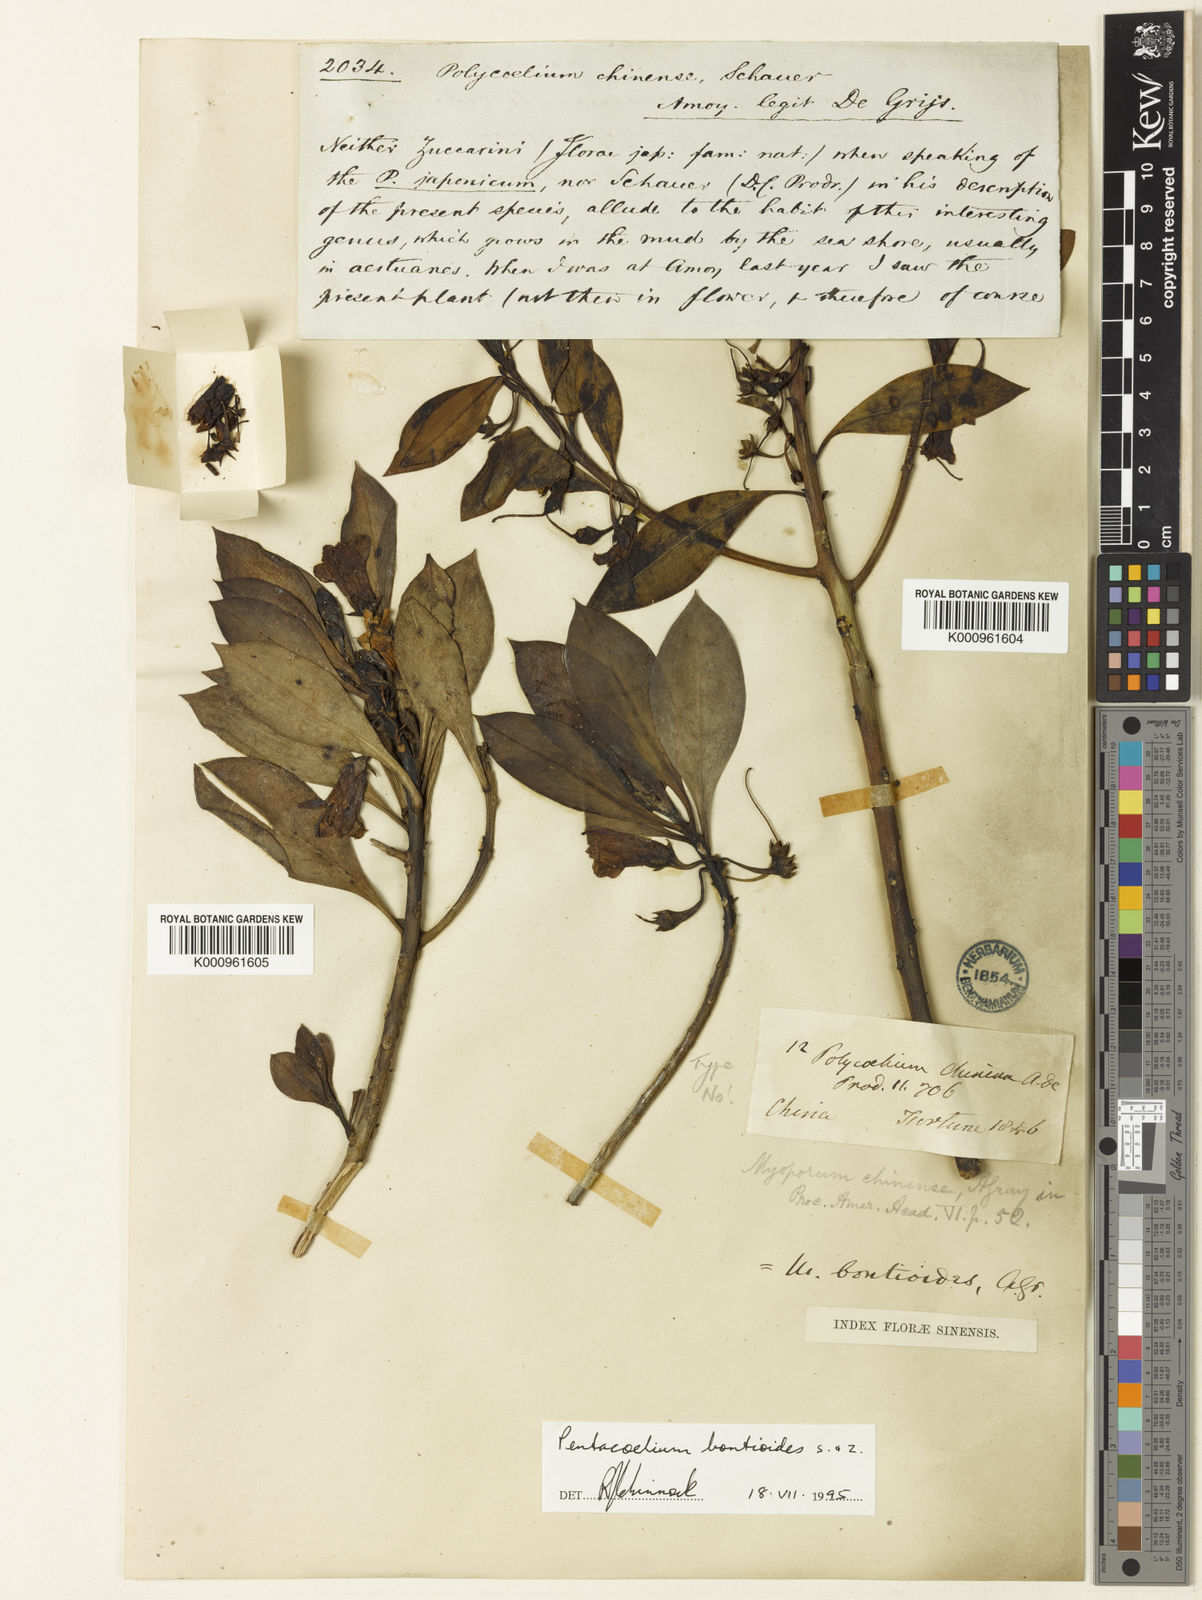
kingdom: Plantae
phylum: Tracheophyta
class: Magnoliopsida
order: Lamiales
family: Scrophulariaceae
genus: Myoporum
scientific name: Myoporum bontioides
